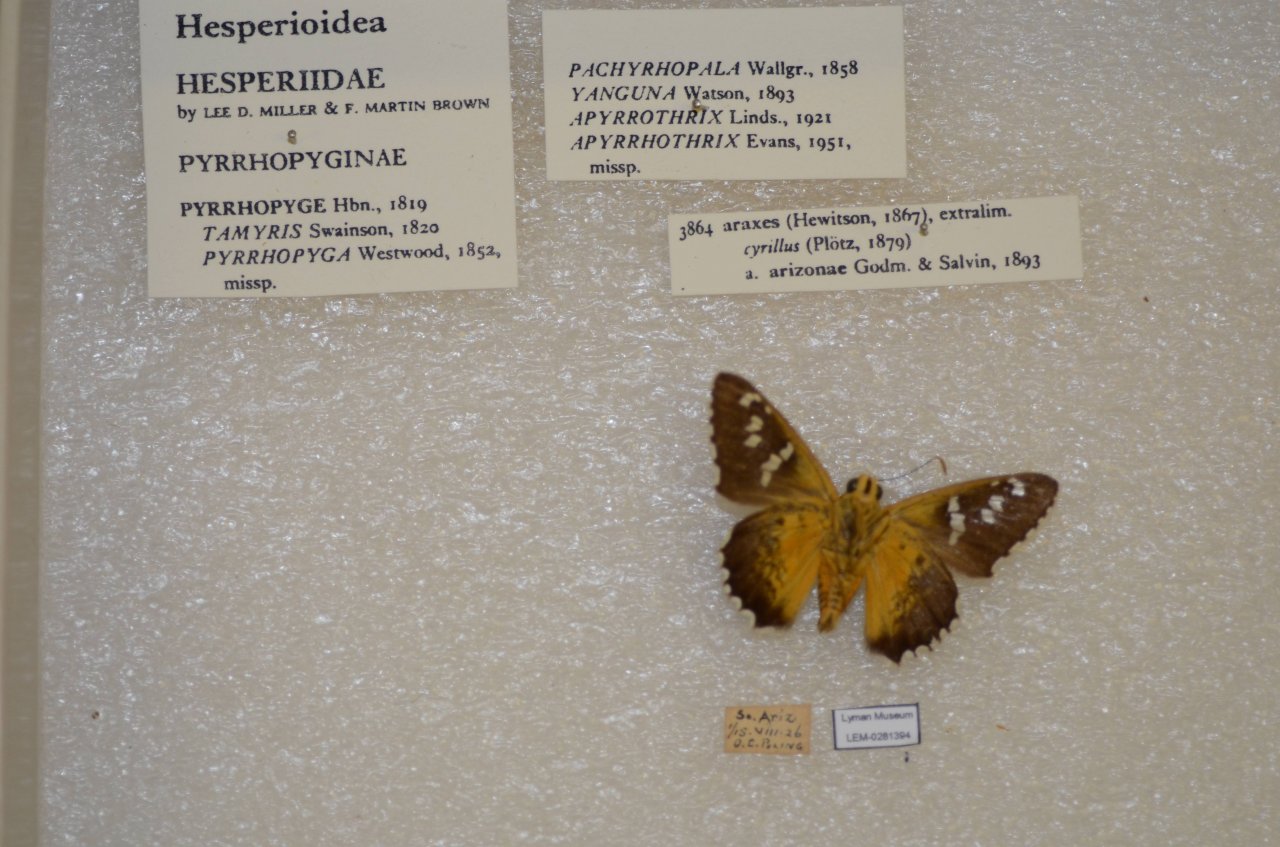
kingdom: Animalia
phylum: Arthropoda
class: Insecta
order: Lepidoptera
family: Hesperiidae
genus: Pyrrhopyge
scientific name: Pyrrhopyge araxes
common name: Dull Firetip
